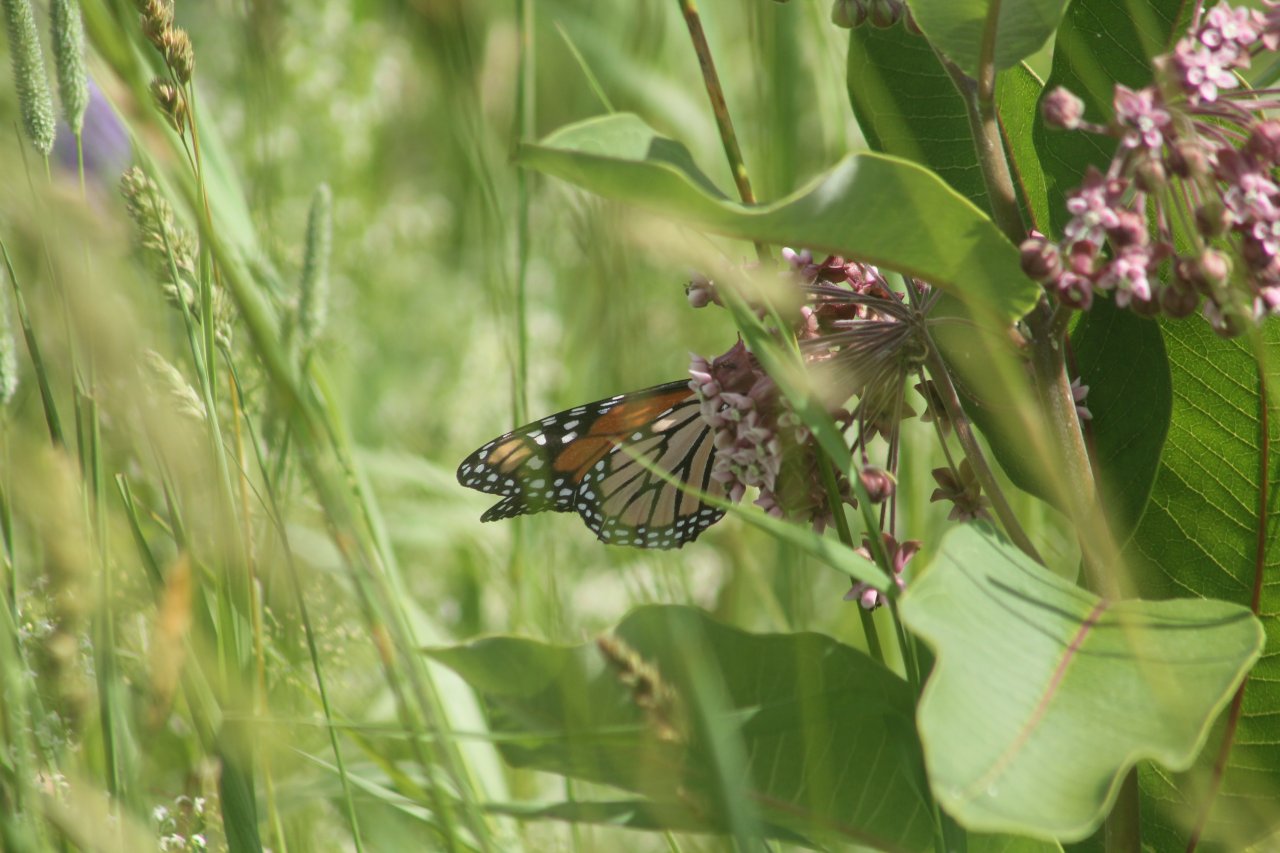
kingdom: Animalia
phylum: Arthropoda
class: Insecta
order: Lepidoptera
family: Nymphalidae
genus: Danaus
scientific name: Danaus plexippus
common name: Monarch
